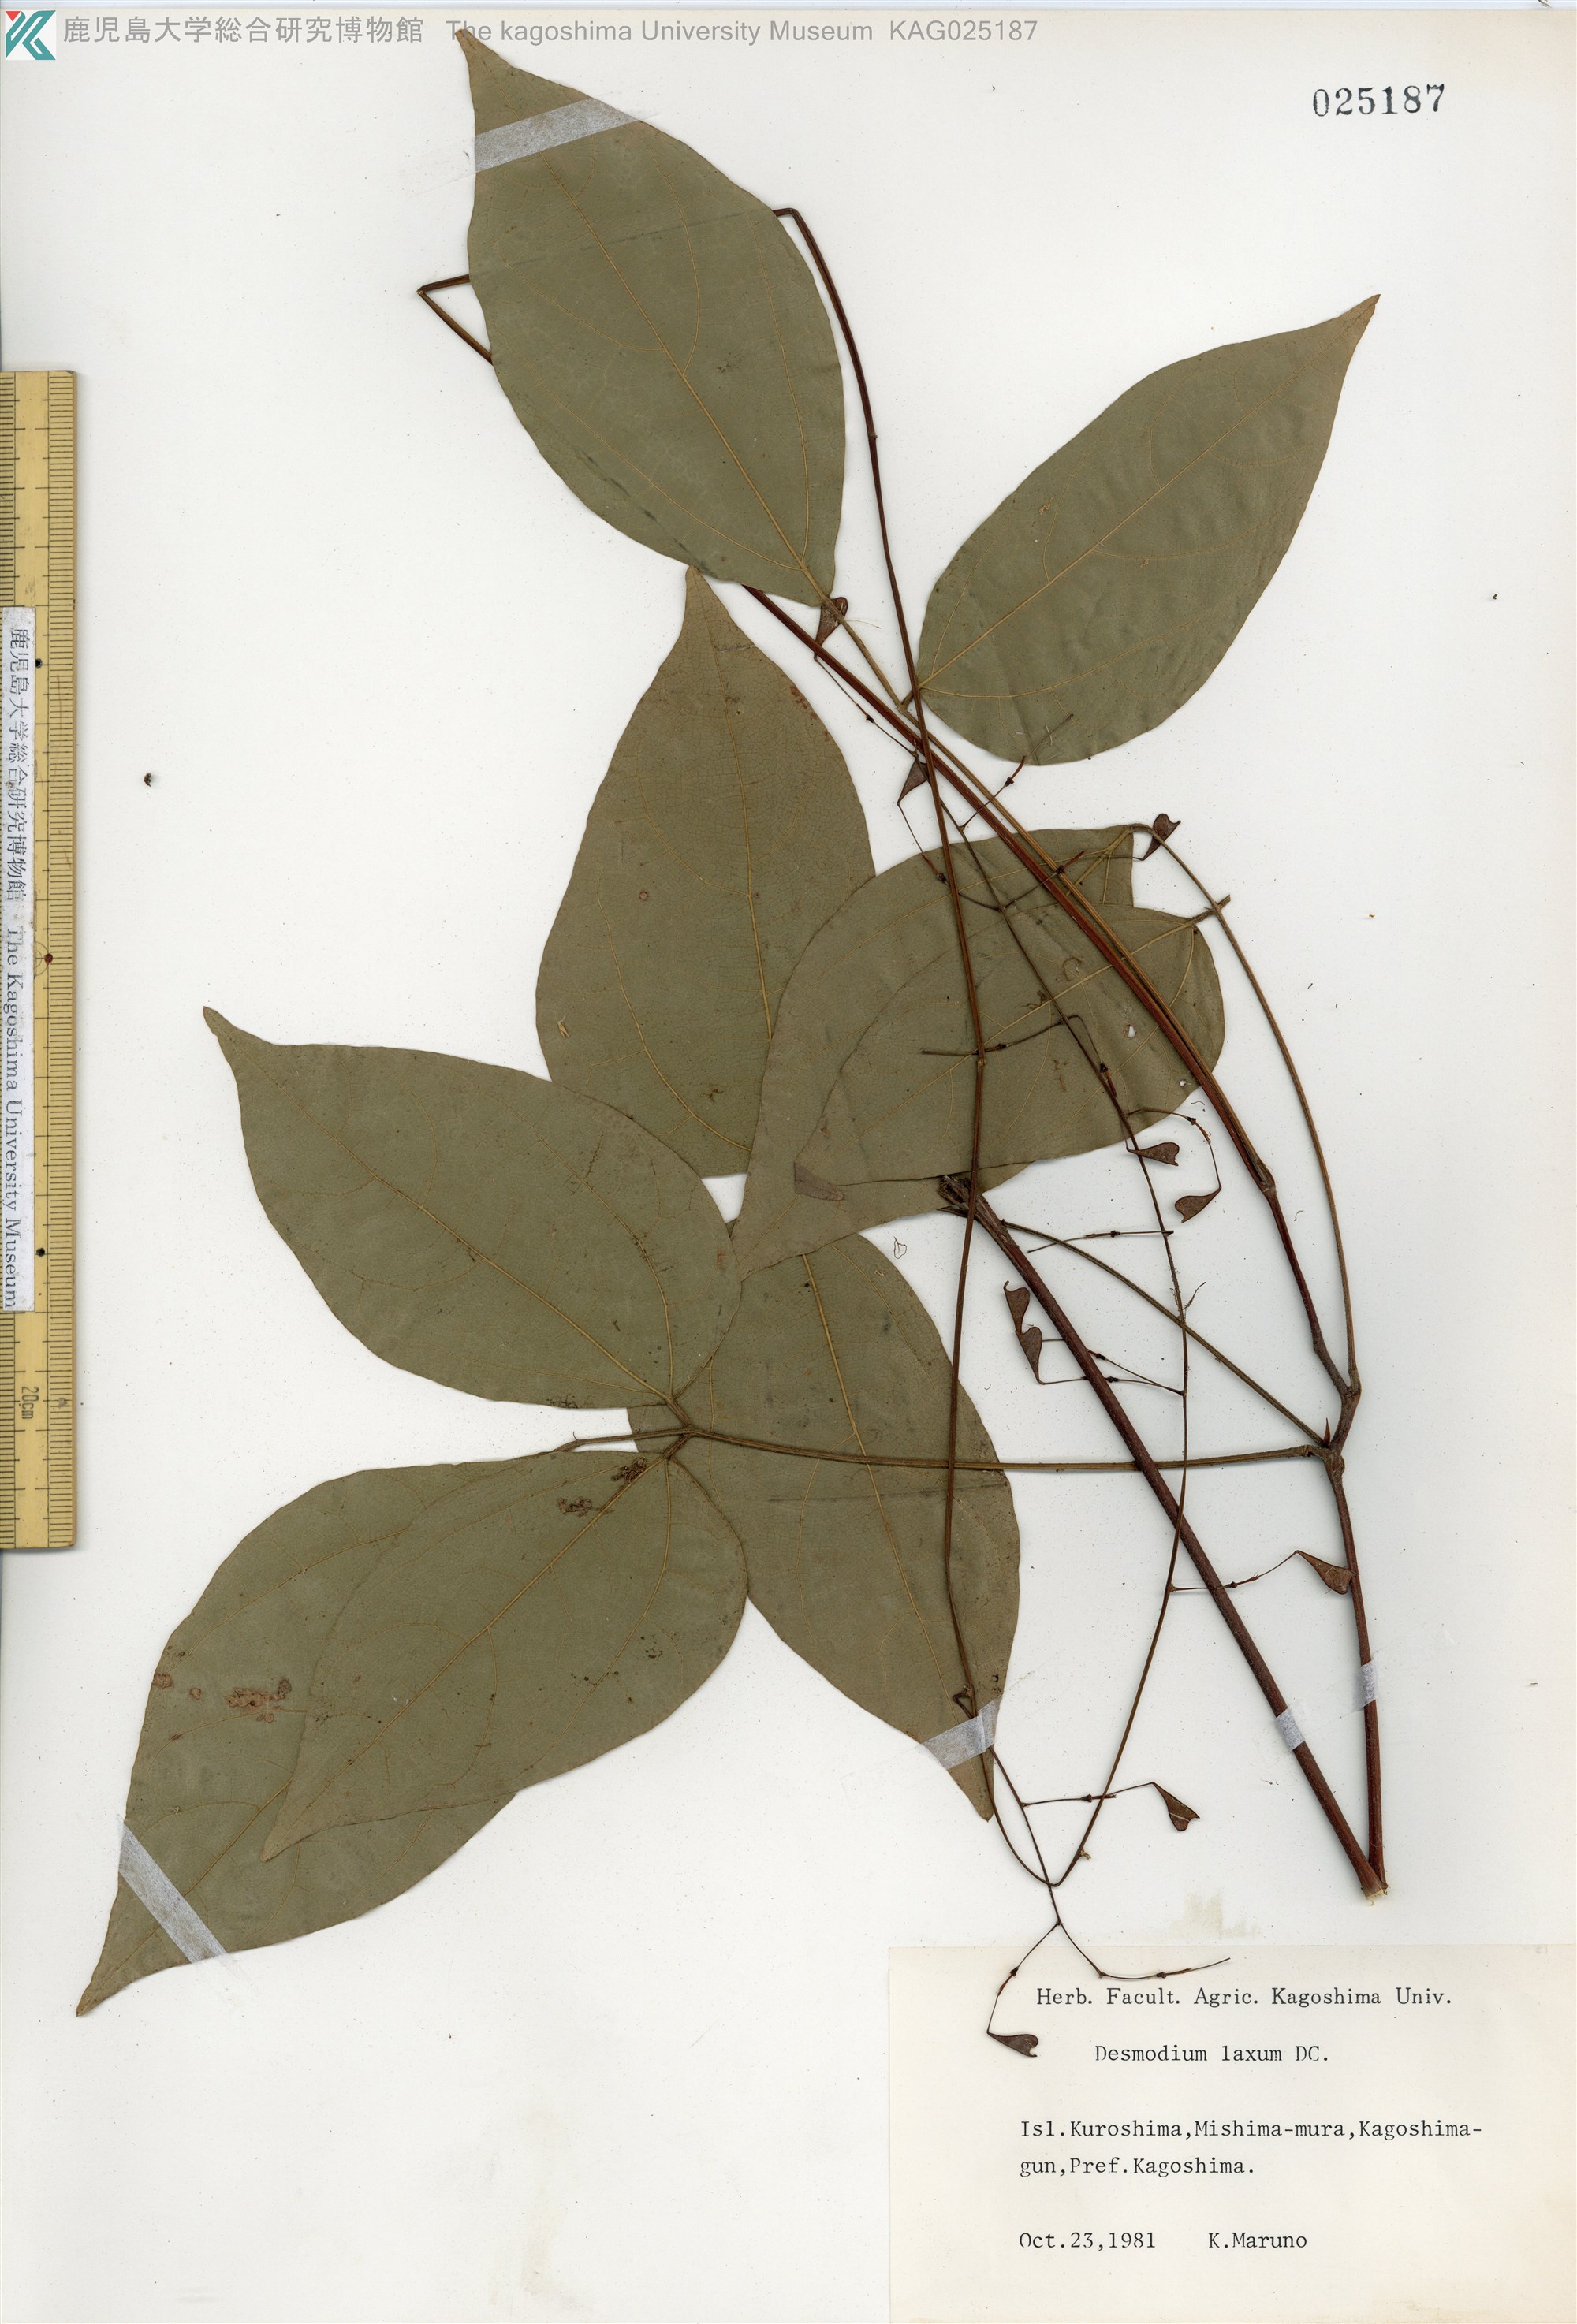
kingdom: Plantae
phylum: Tracheophyta
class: Magnoliopsida
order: Fabales
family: Fabaceae
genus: Desmodium
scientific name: Desmodium laxum
